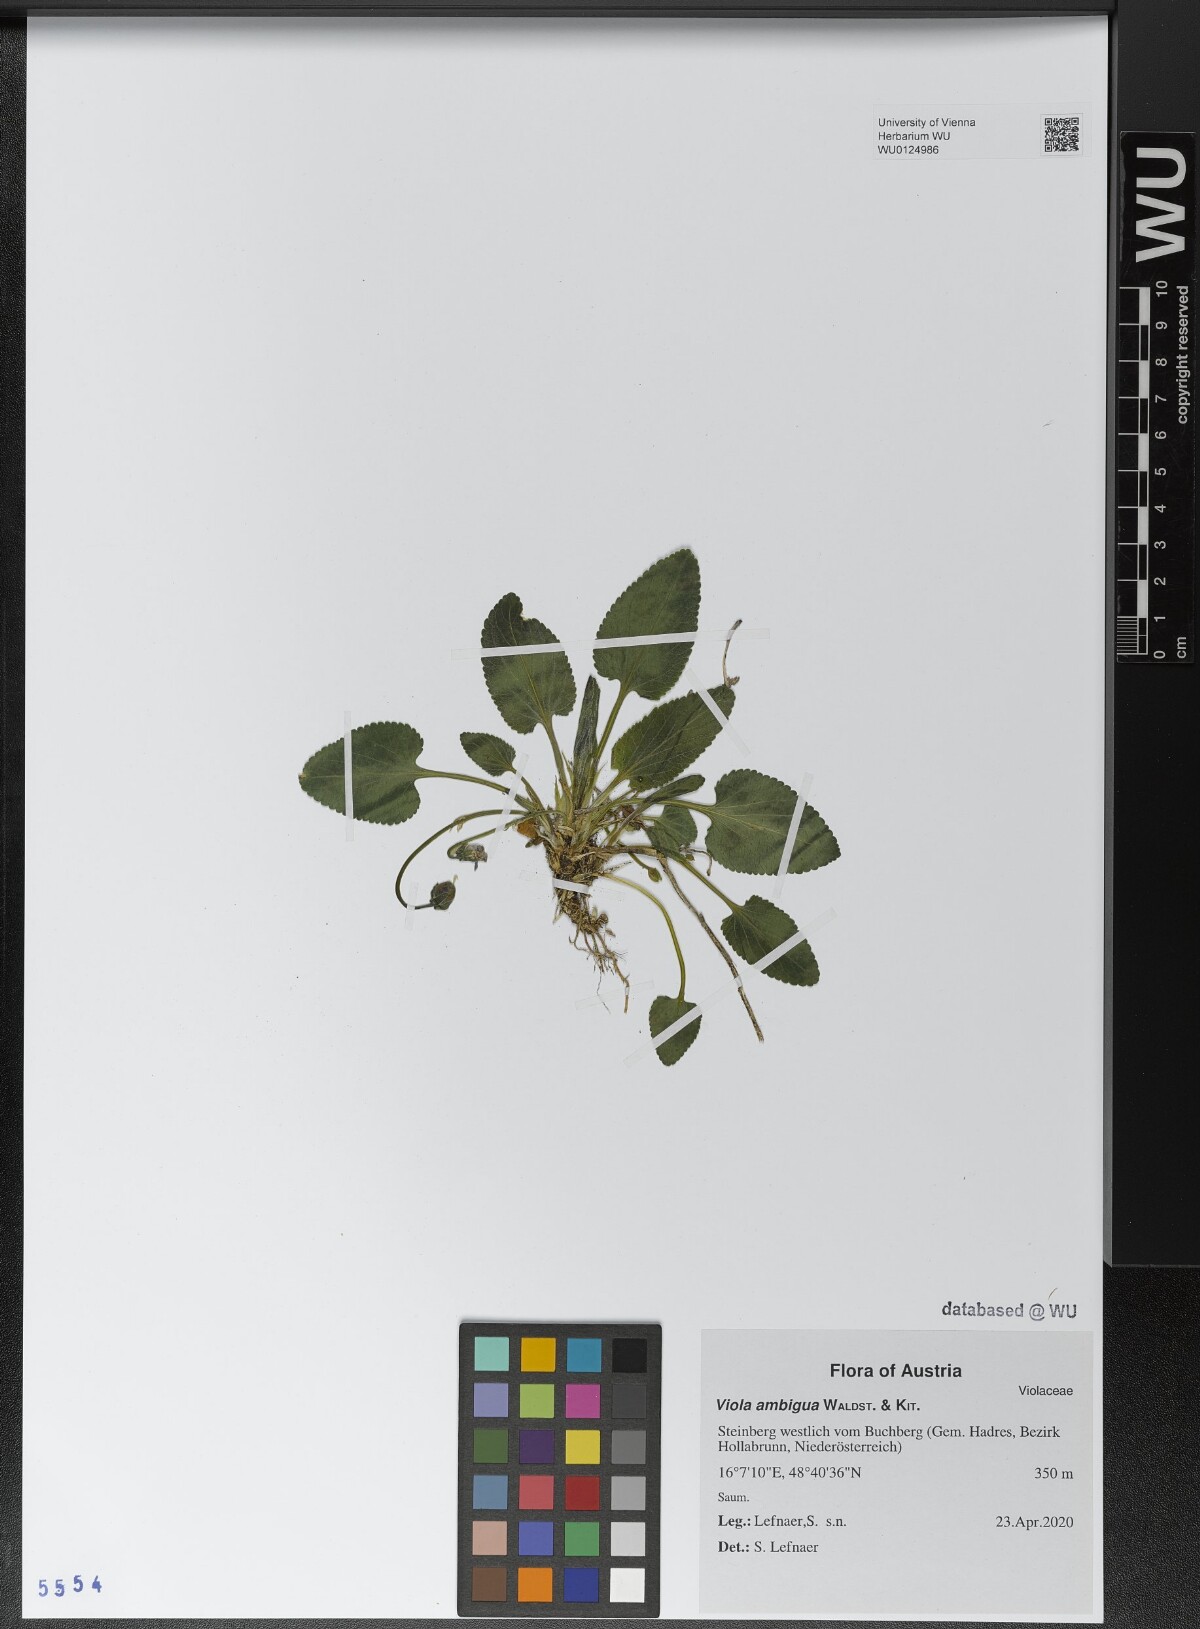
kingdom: Plantae
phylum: Tracheophyta
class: Magnoliopsida
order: Malpighiales
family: Violaceae
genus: Viola
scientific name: Viola ambigua
